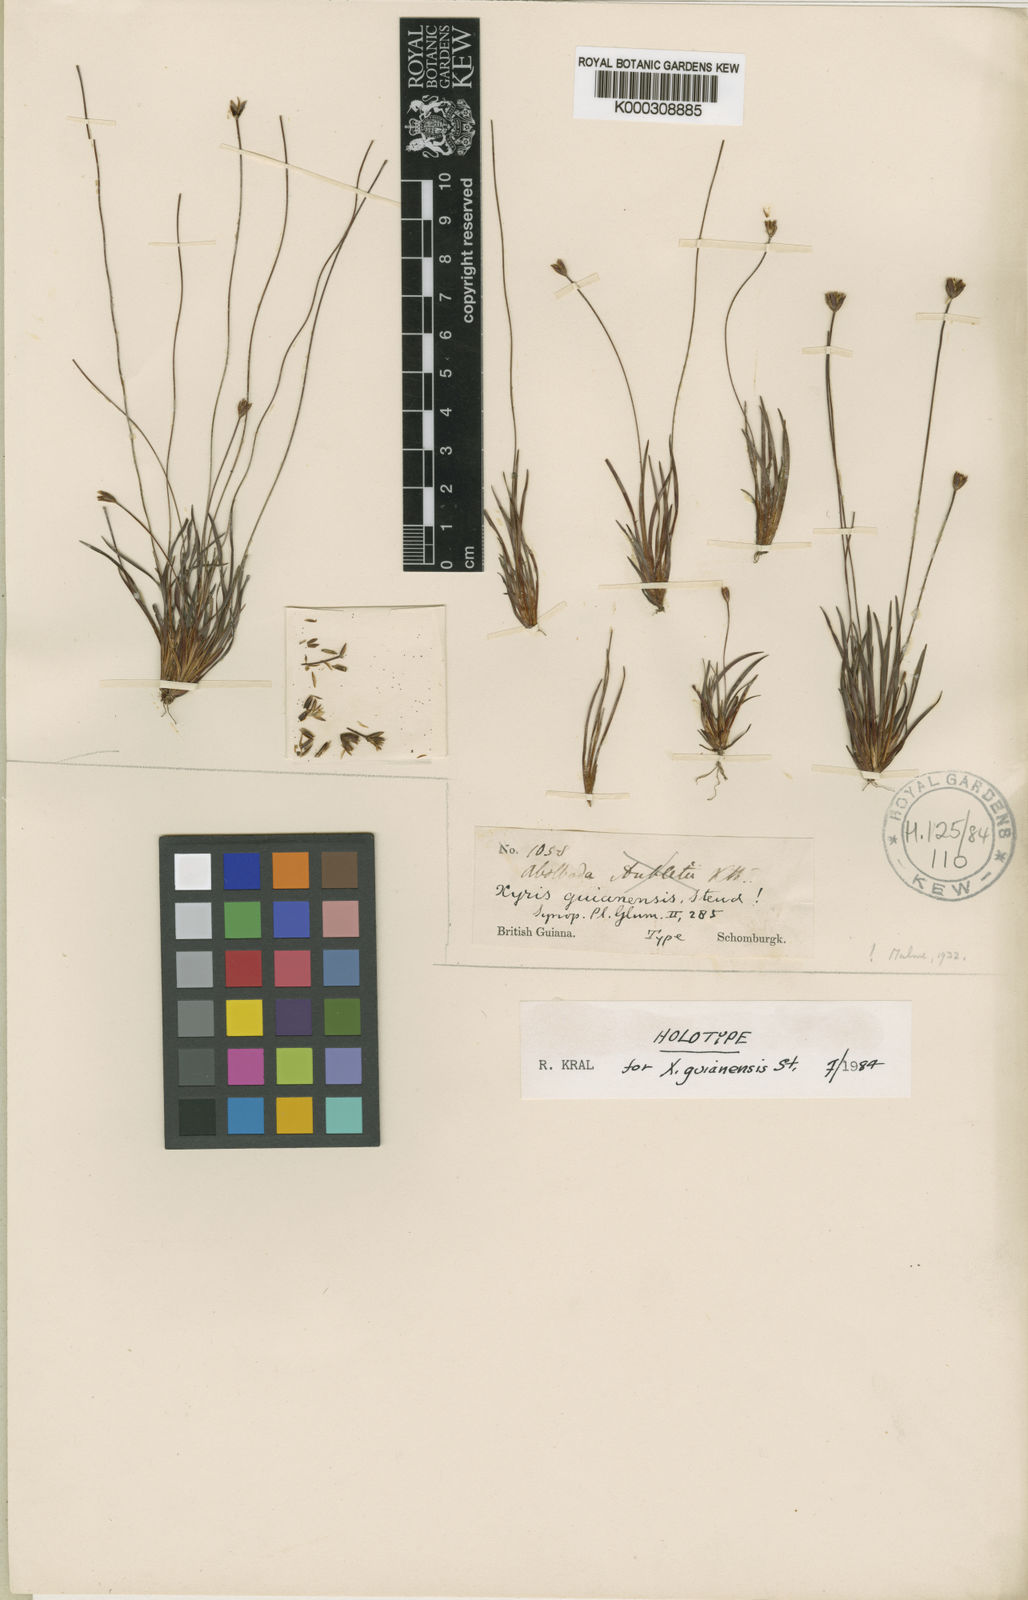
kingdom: Plantae
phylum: Tracheophyta
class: Liliopsida
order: Poales
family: Xyridaceae
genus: Xyris
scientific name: Xyris guianensis
